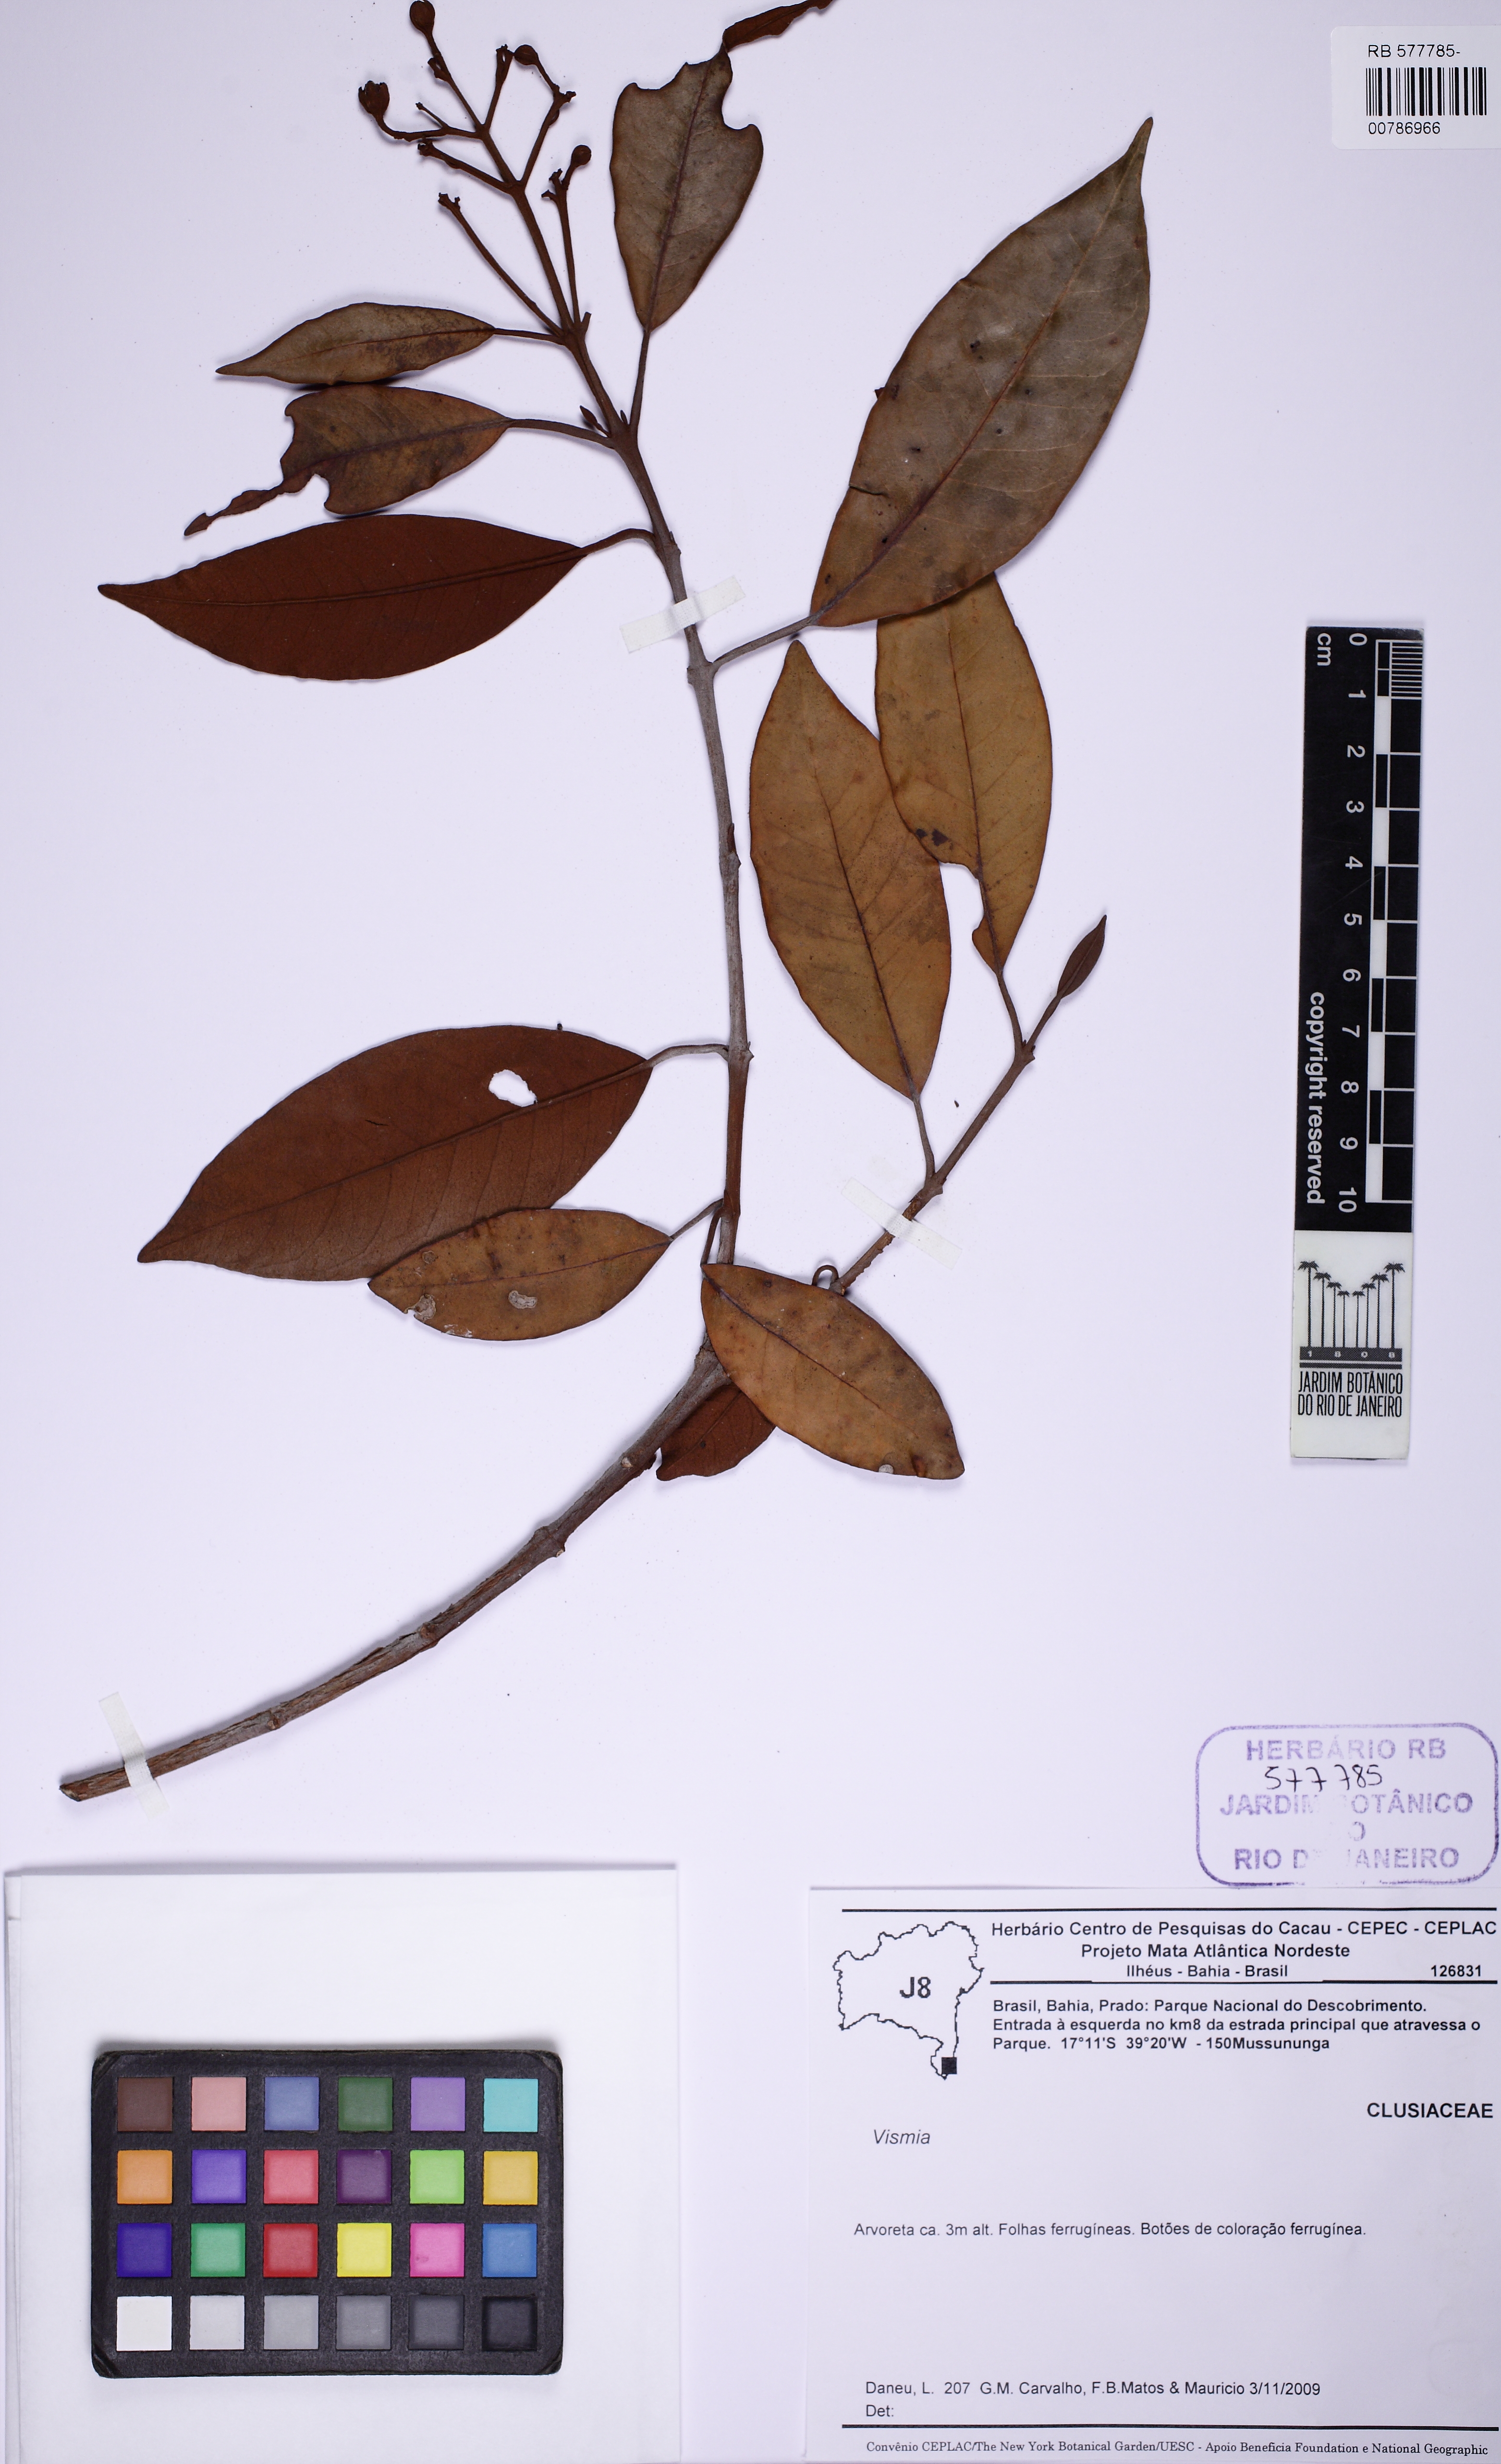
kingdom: Plantae
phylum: Tracheophyta
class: Magnoliopsida
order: Malpighiales
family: Hypericaceae
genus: Vismia
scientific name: Vismia magnoliifolia
